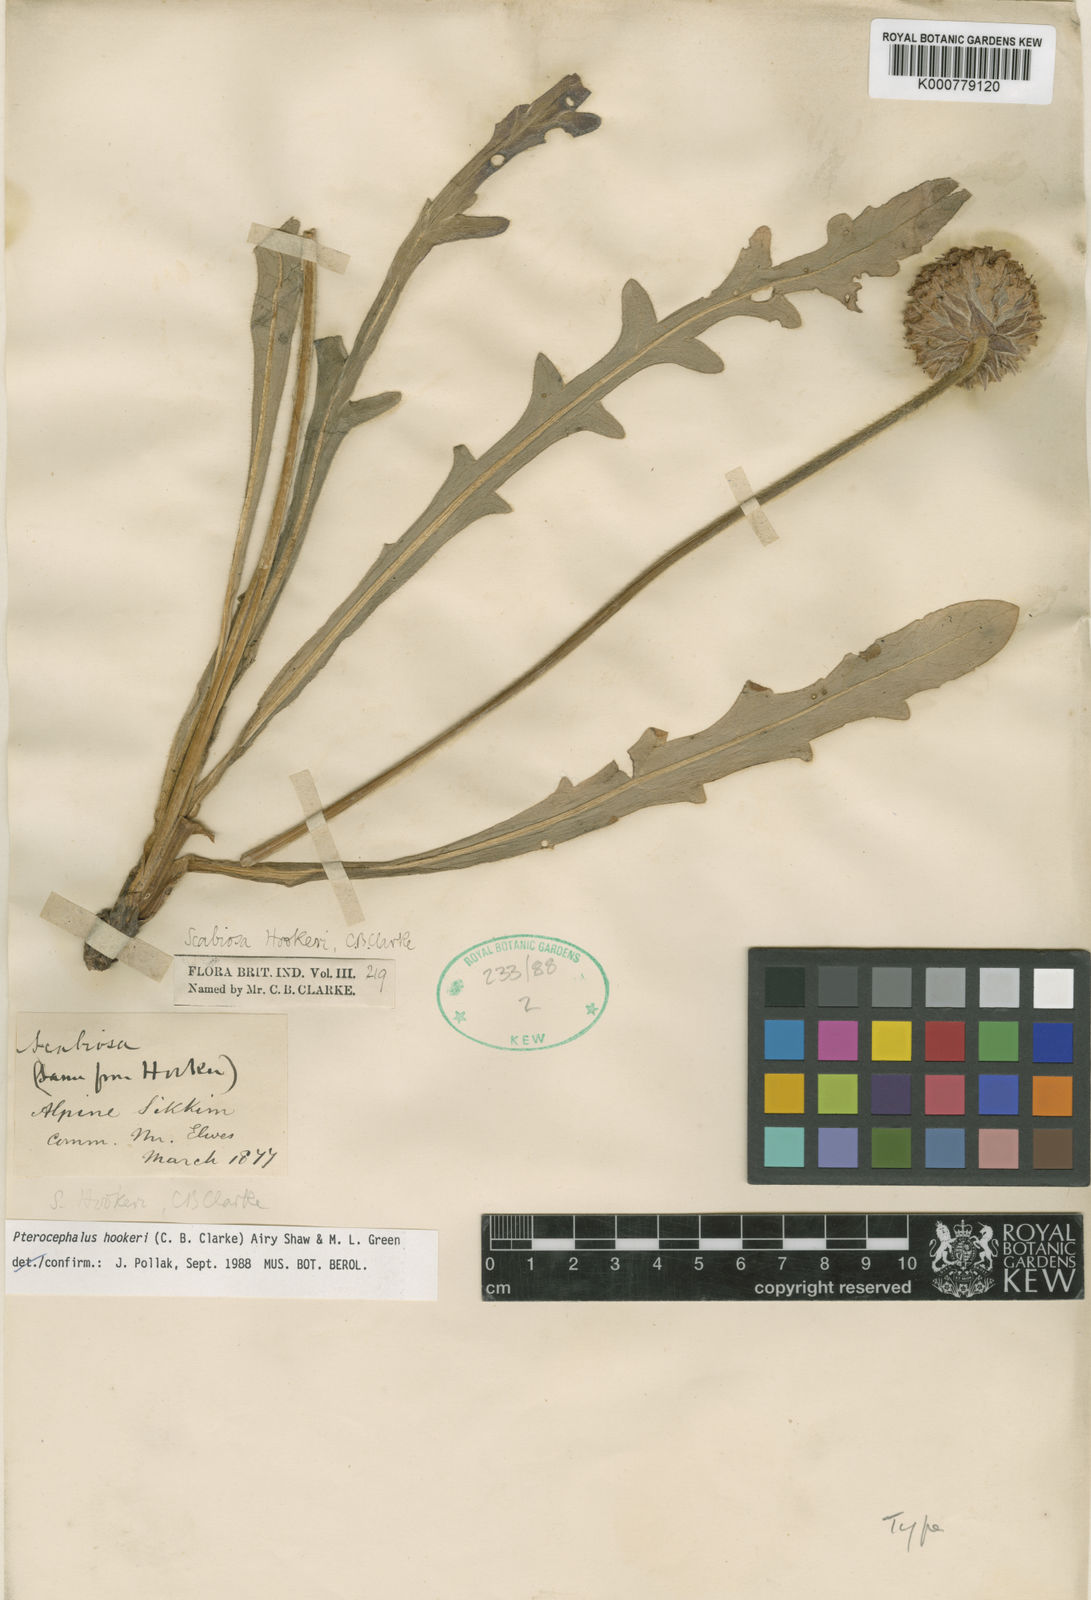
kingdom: Plantae
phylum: Tracheophyta
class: Magnoliopsida
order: Dipsacales
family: Caprifoliaceae
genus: Bassecoia
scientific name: Bassecoia hookeri
